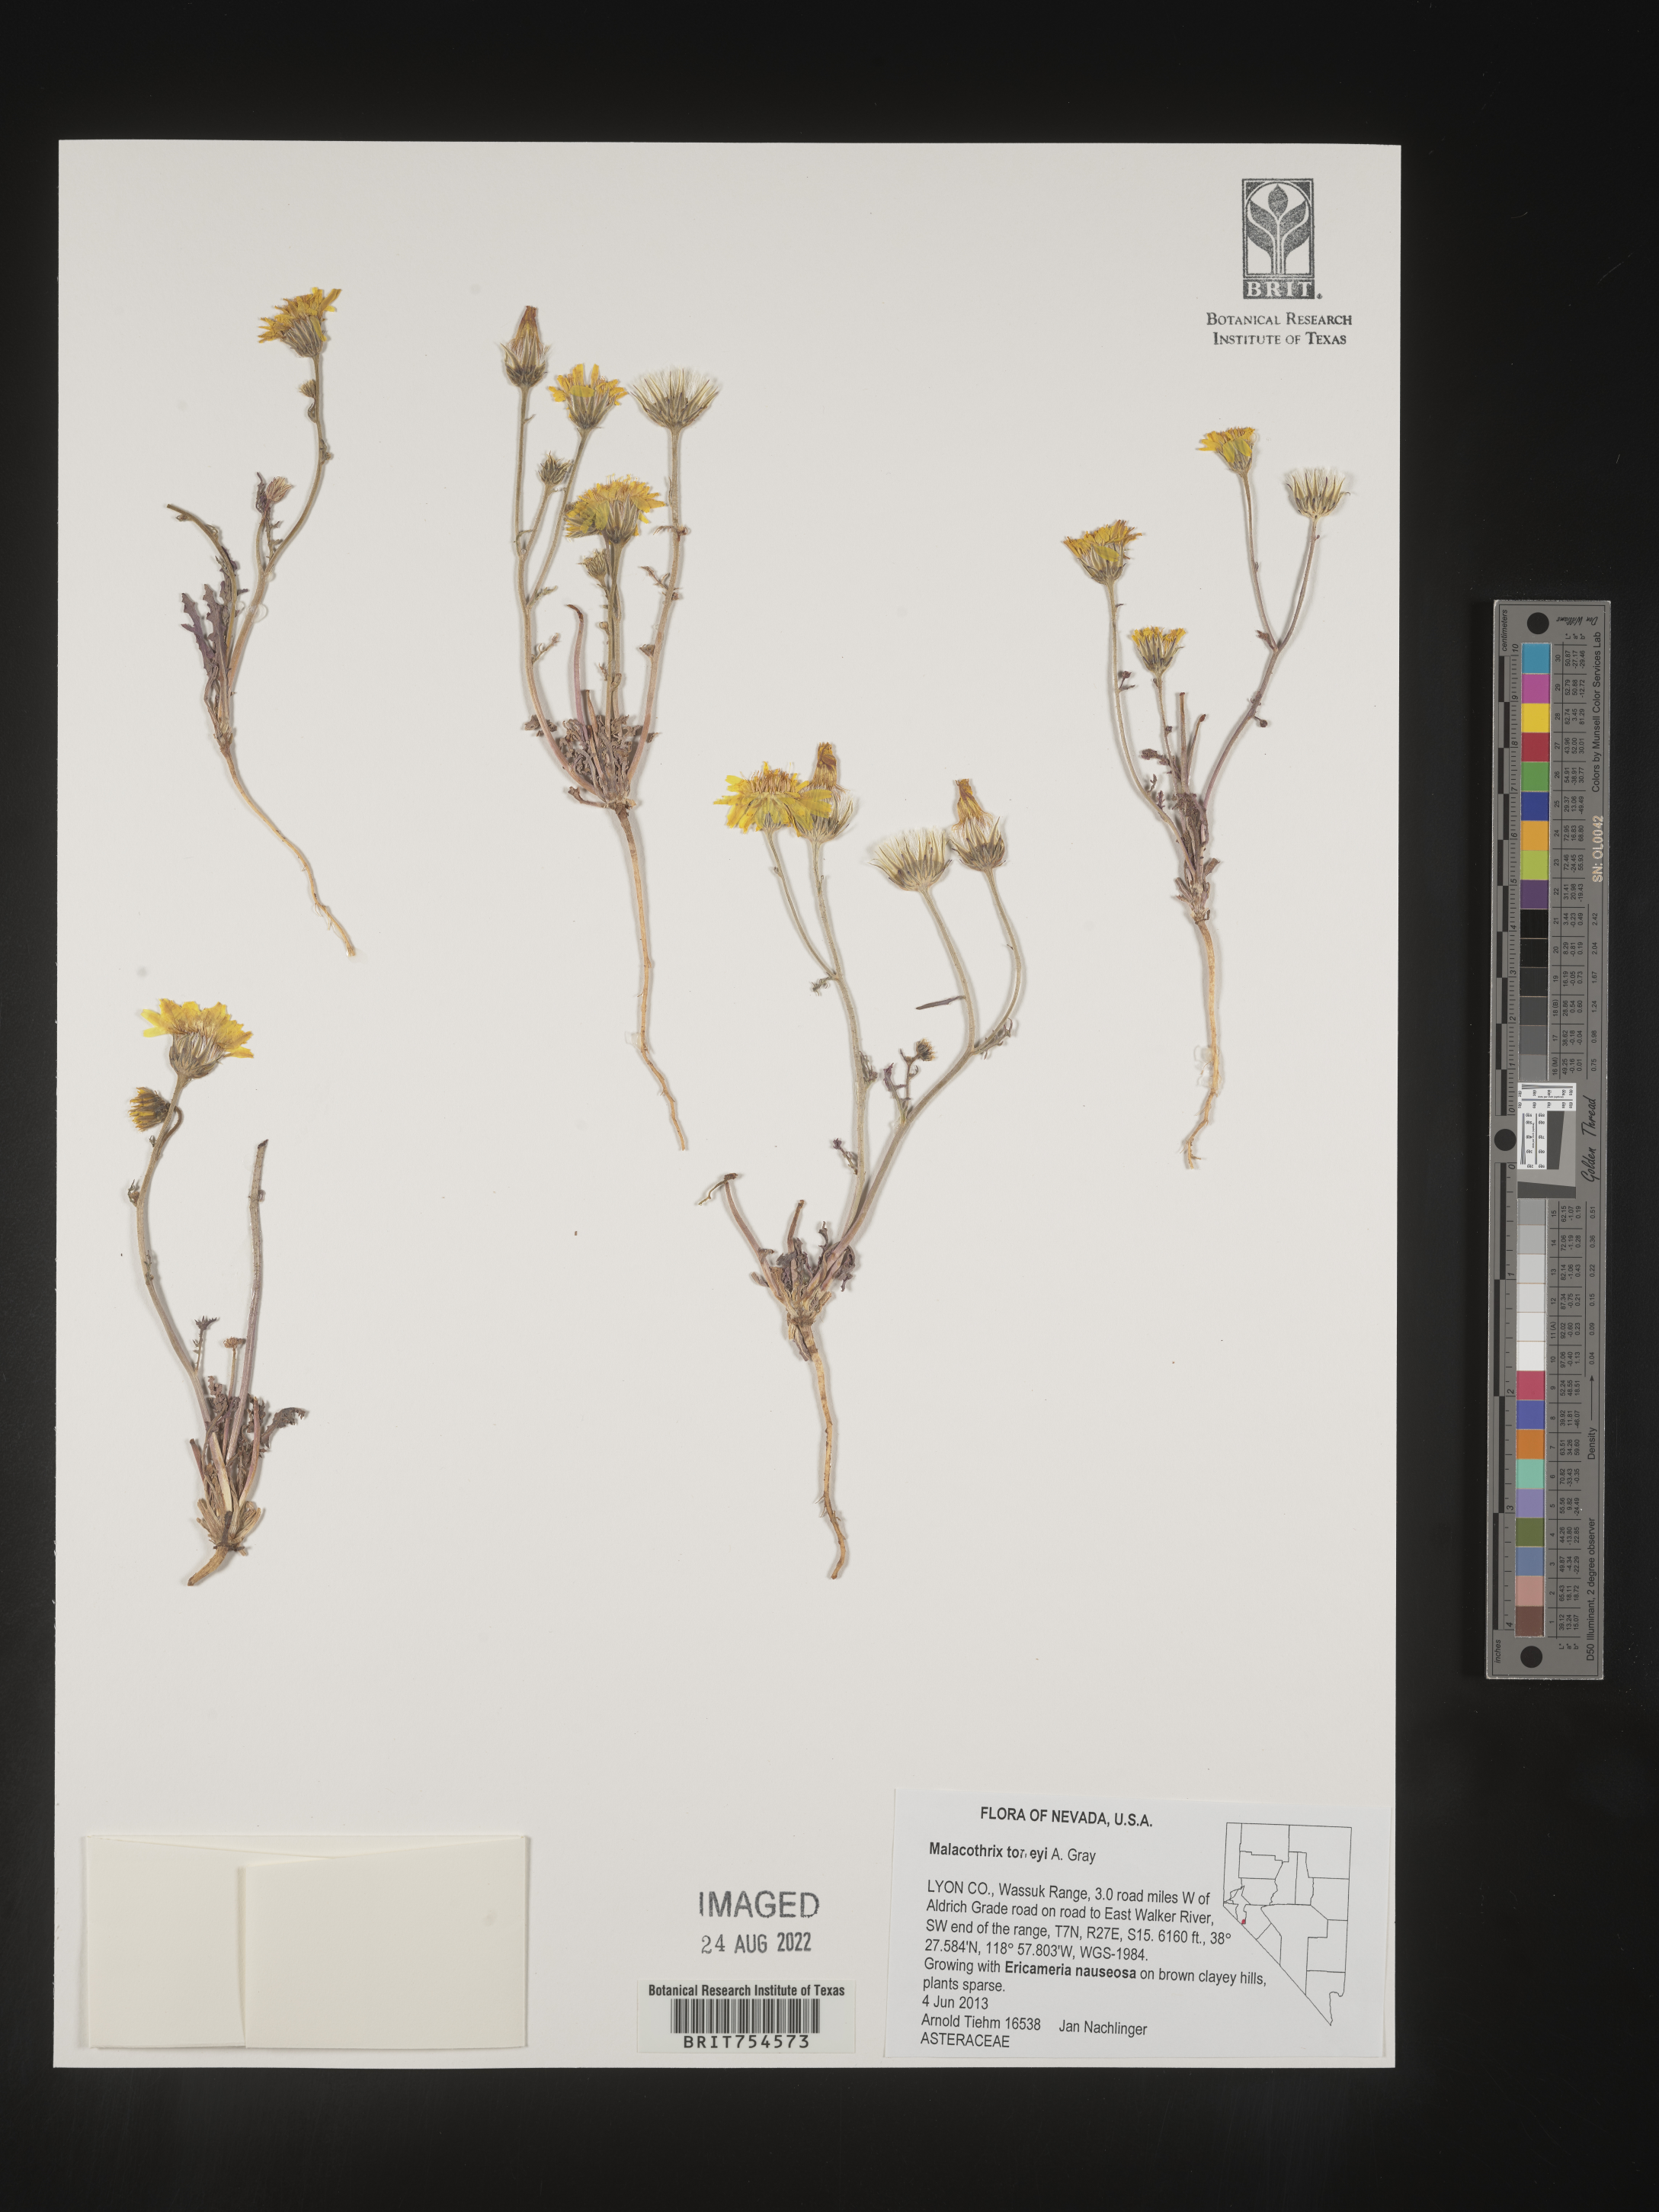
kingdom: Plantae
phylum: Tracheophyta
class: Magnoliopsida
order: Asterales
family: Asteraceae
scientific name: Asteraceae
